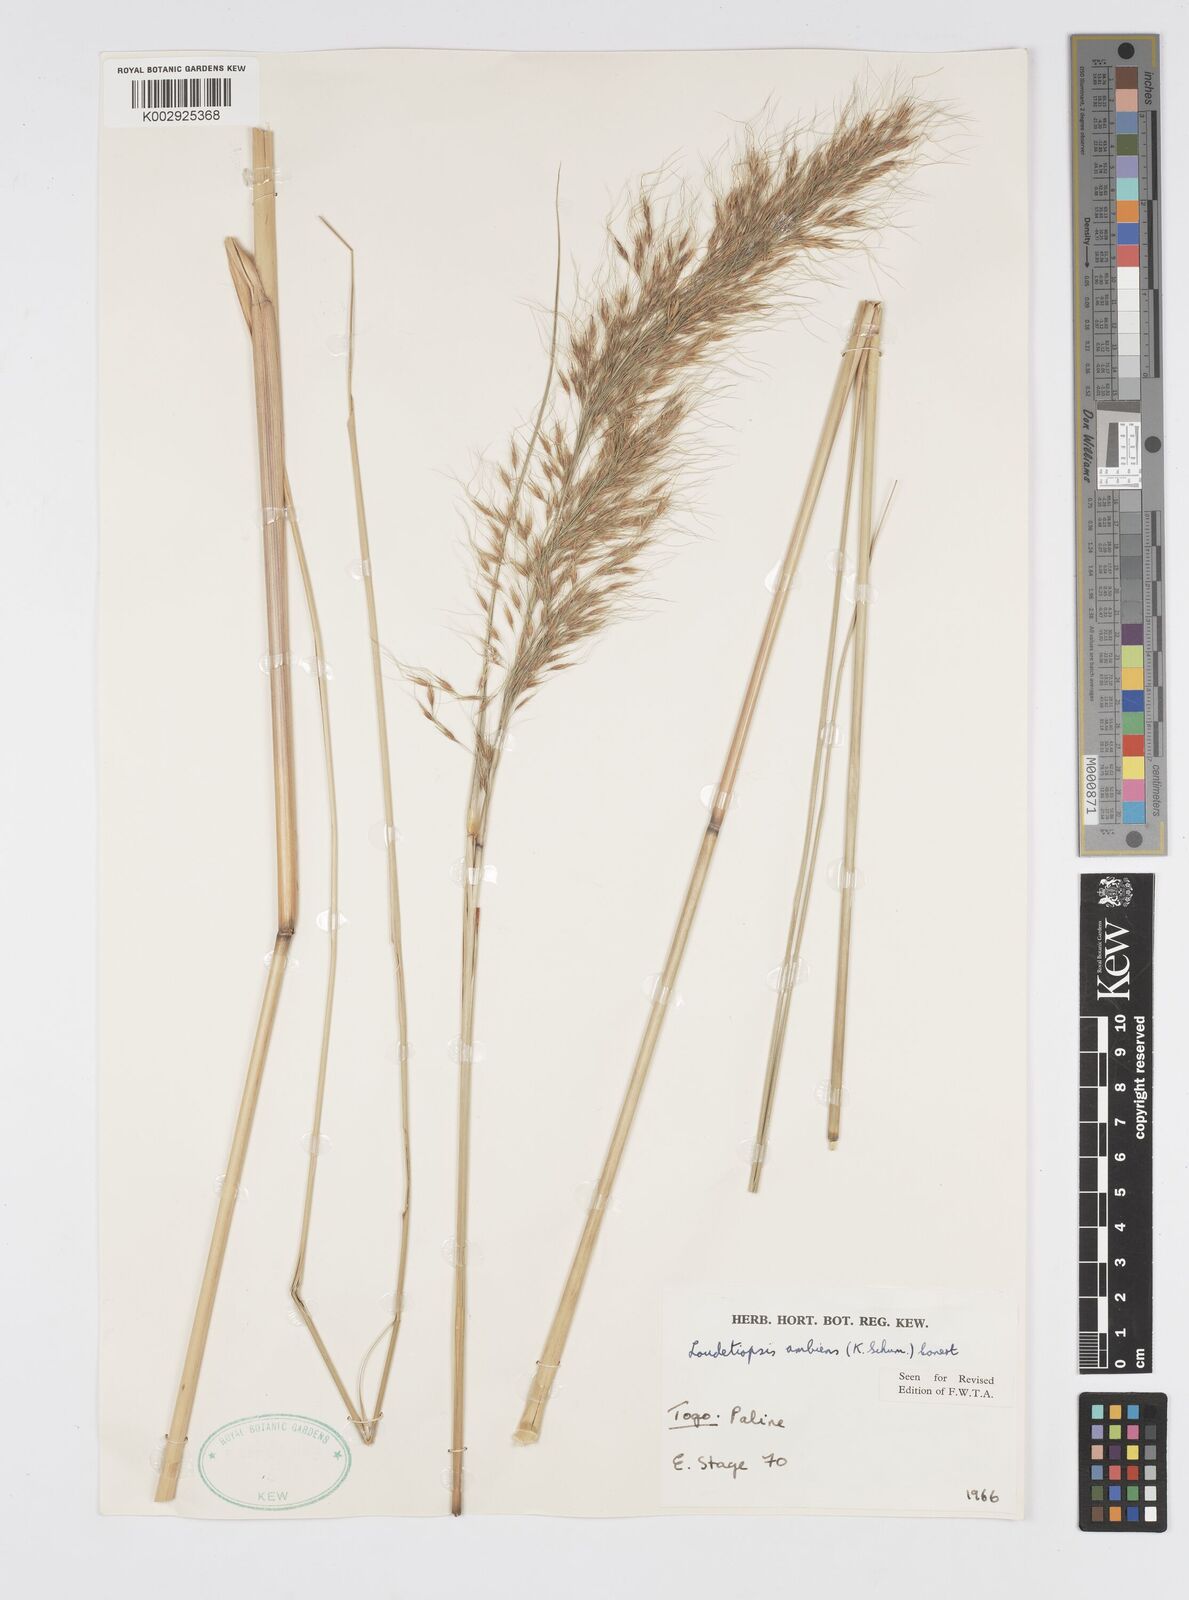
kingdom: Plantae
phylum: Tracheophyta
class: Liliopsida
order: Poales
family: Poaceae
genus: Loudetiopsis
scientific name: Loudetiopsis ambiens
